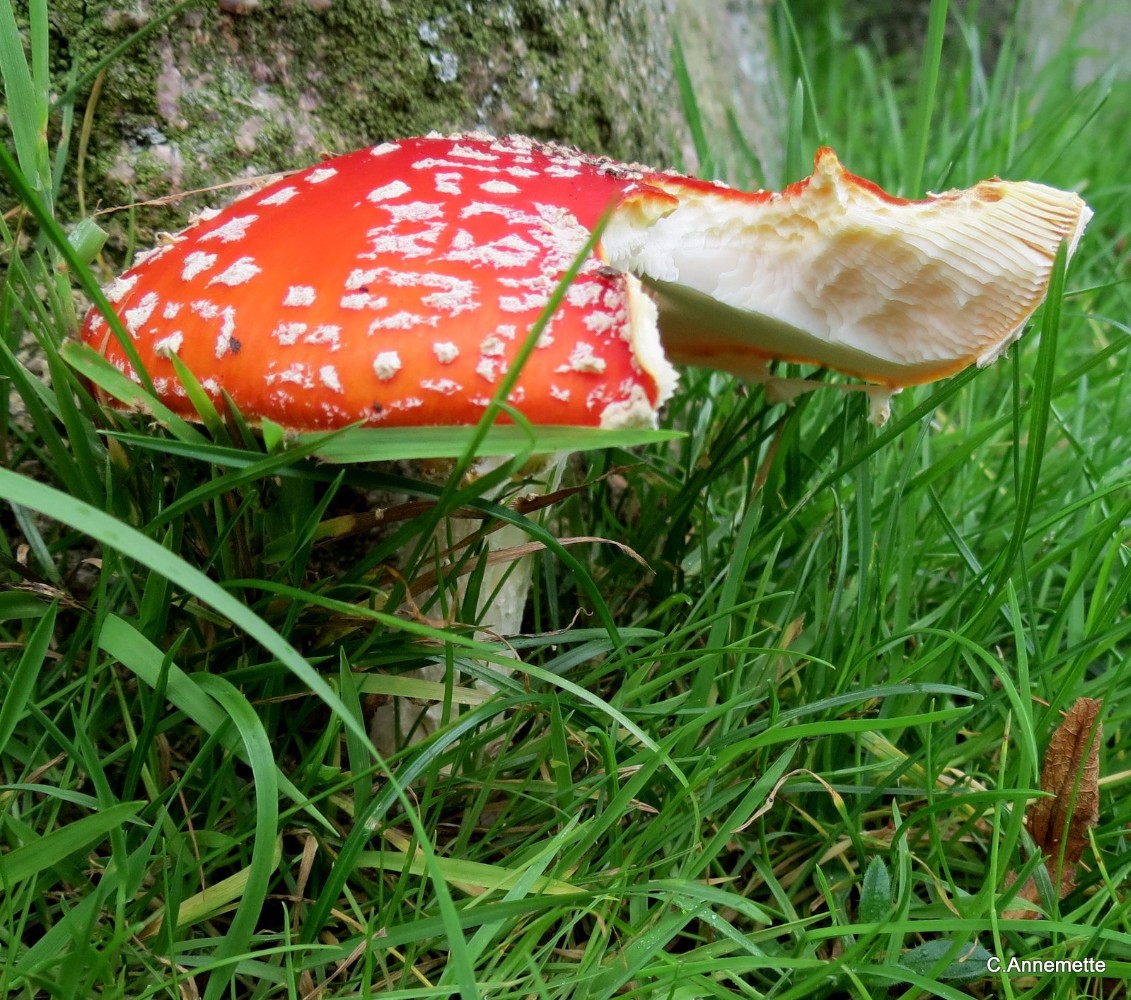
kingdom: Fungi
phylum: Basidiomycota
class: Agaricomycetes
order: Agaricales
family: Amanitaceae
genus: Amanita
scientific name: Amanita muscaria
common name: rød fluesvamp
